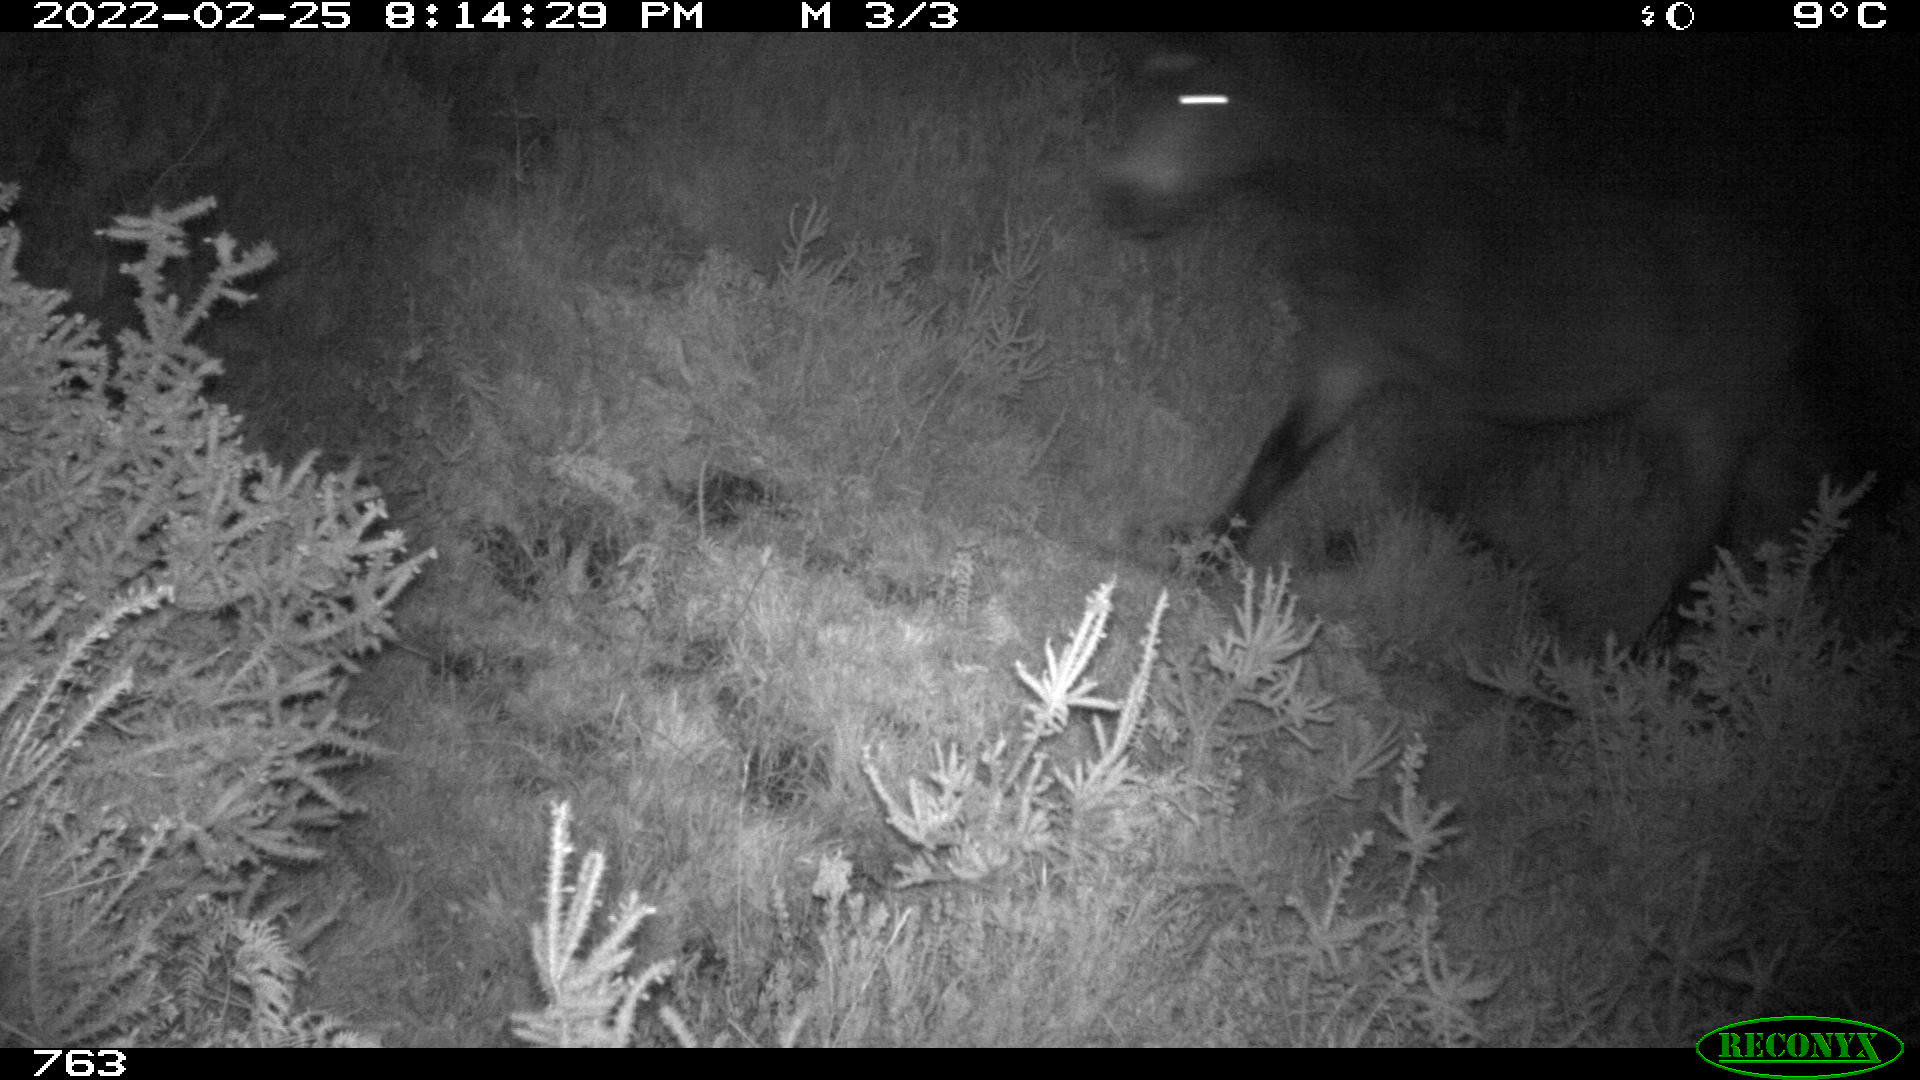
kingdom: Animalia
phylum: Chordata
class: Mammalia
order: Perissodactyla
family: Equidae
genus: Equus
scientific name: Equus caballus
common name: Horse
